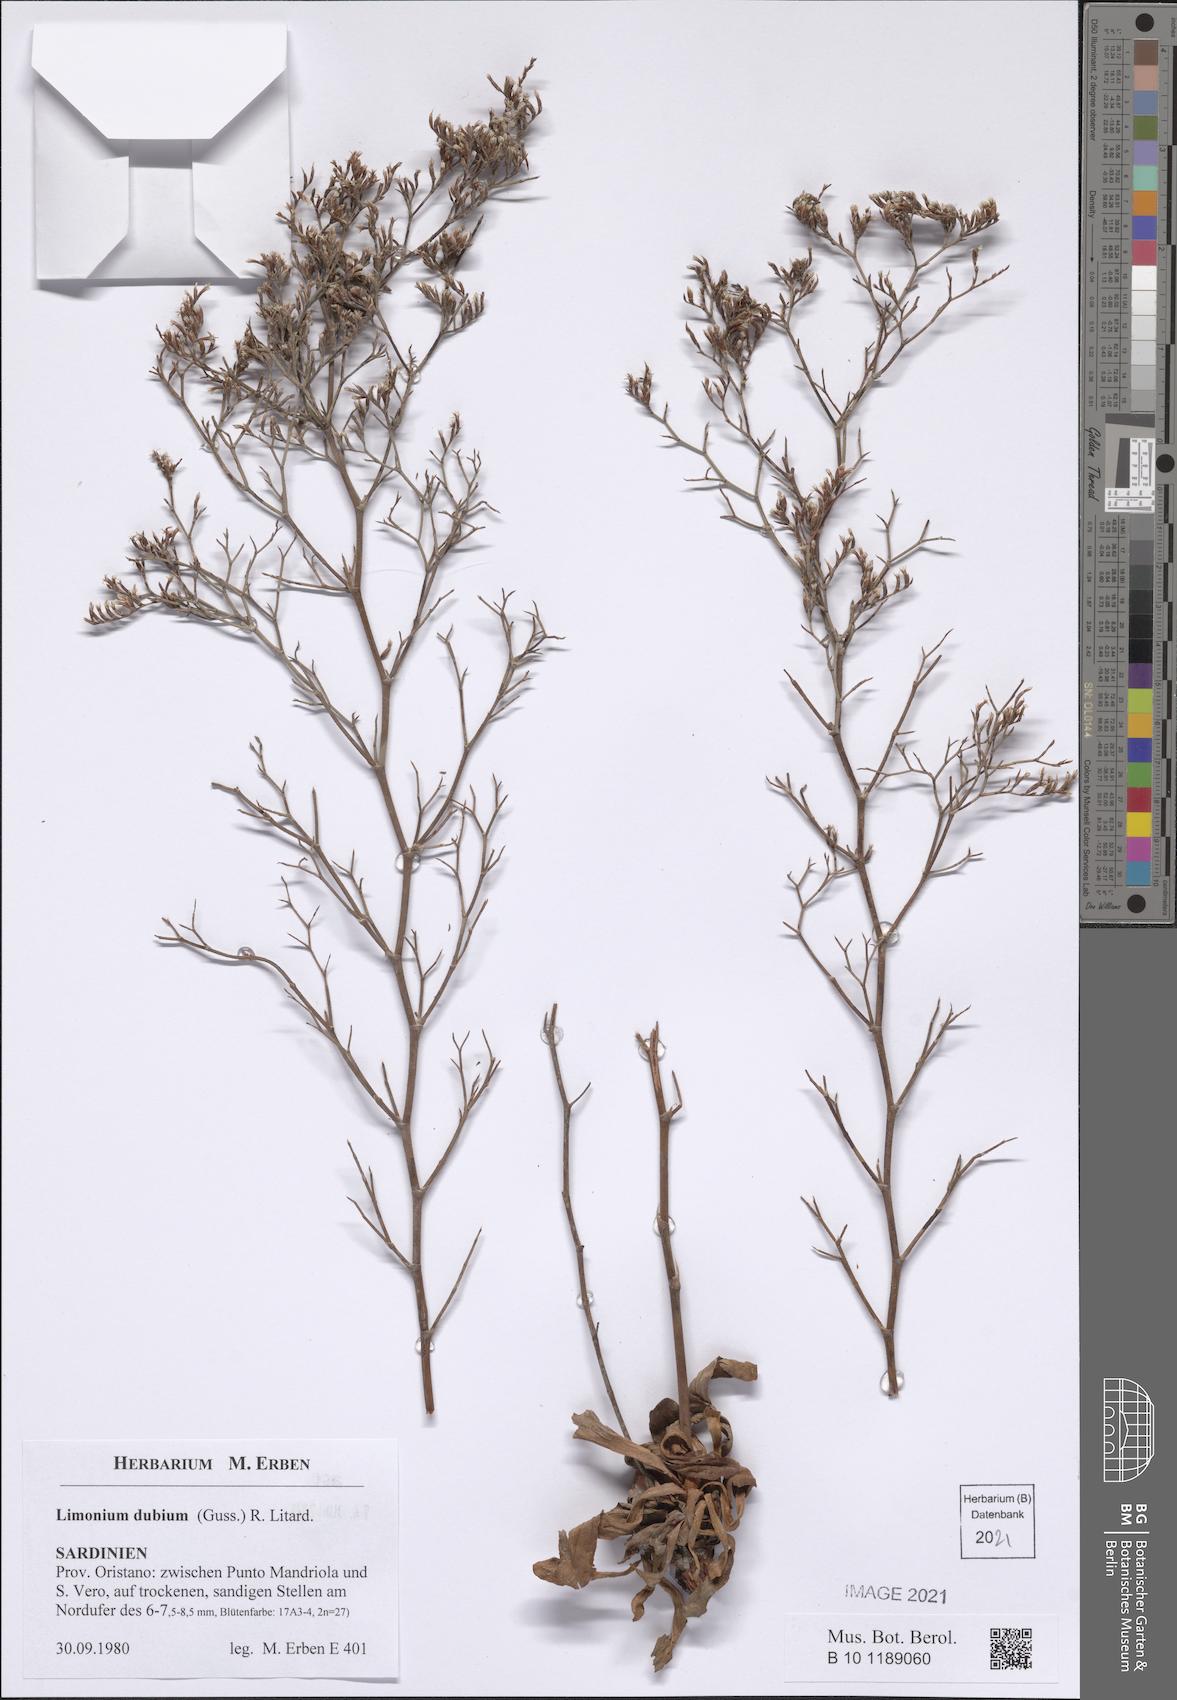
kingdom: Plantae
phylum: Tracheophyta
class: Magnoliopsida
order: Caryophyllales
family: Plumbaginaceae
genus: Limonium
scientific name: Limonium dubium
